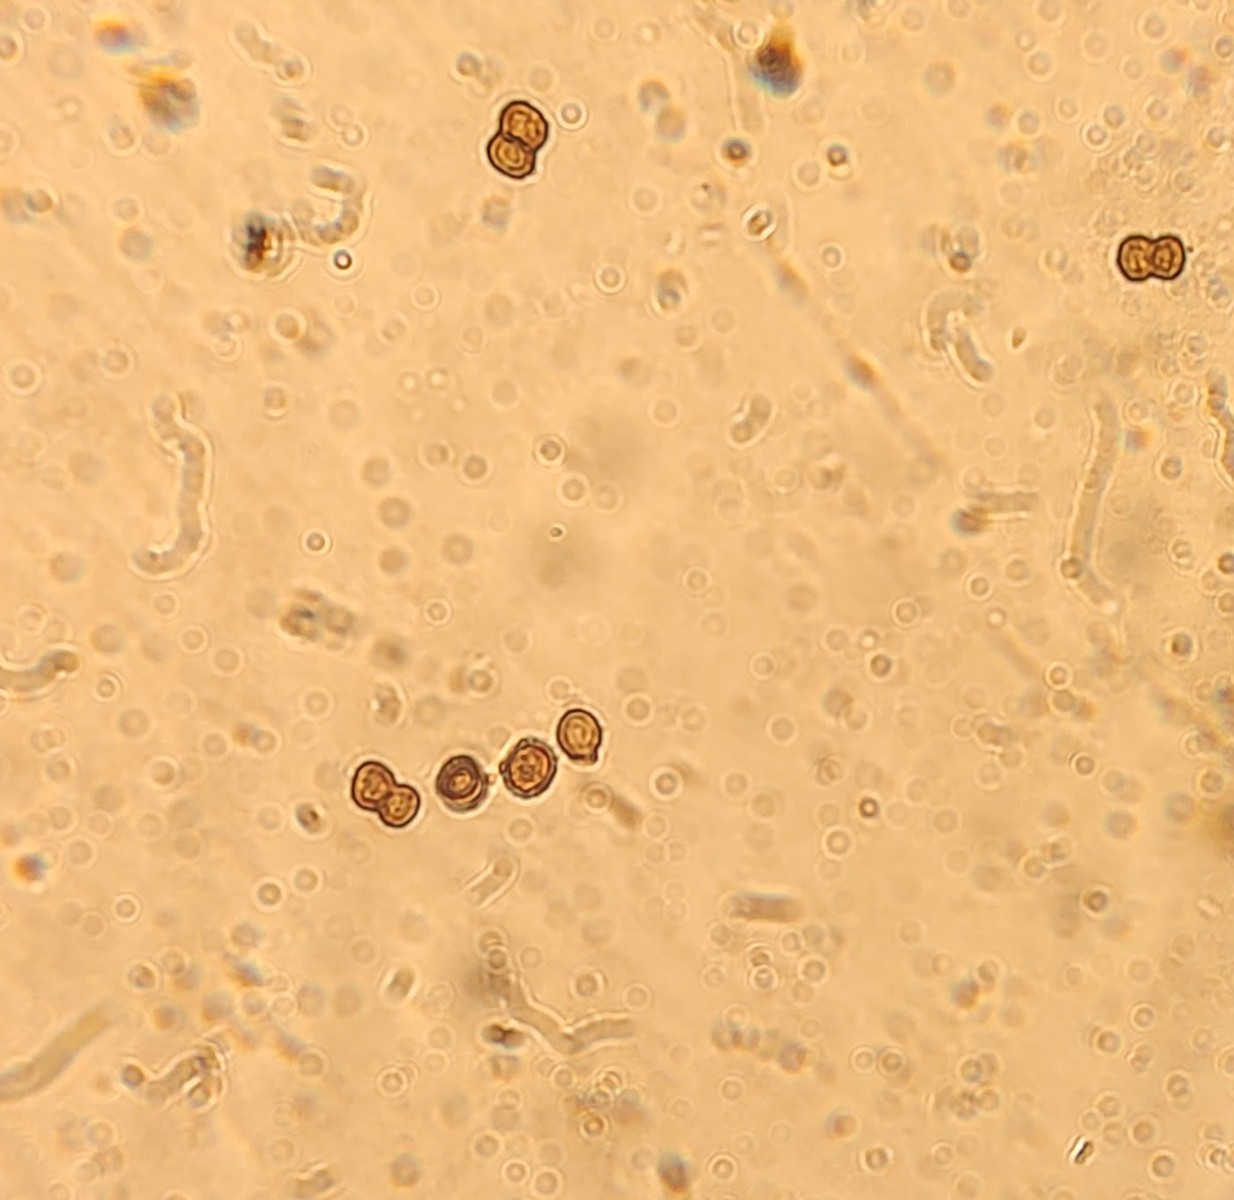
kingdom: Fungi
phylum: Ascomycota
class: Dothideomycetes
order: Pleosporales
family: Torulaceae
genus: Rutola
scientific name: Rutola graminis
